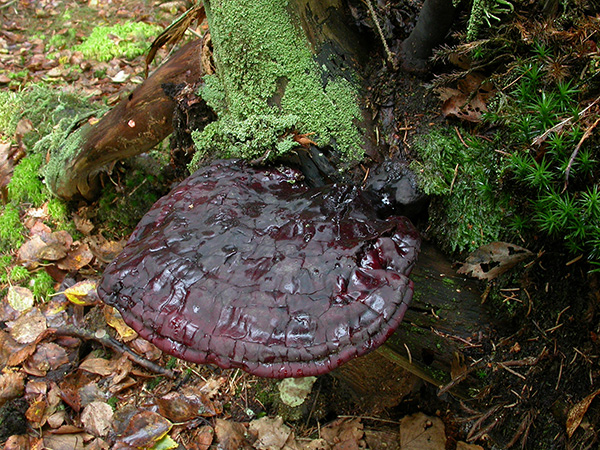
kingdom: Fungi
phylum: Basidiomycota
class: Agaricomycetes
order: Polyporales
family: Polyporaceae
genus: Ganoderma
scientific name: Ganoderma lucidum
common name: skinnende lakporesvamp
